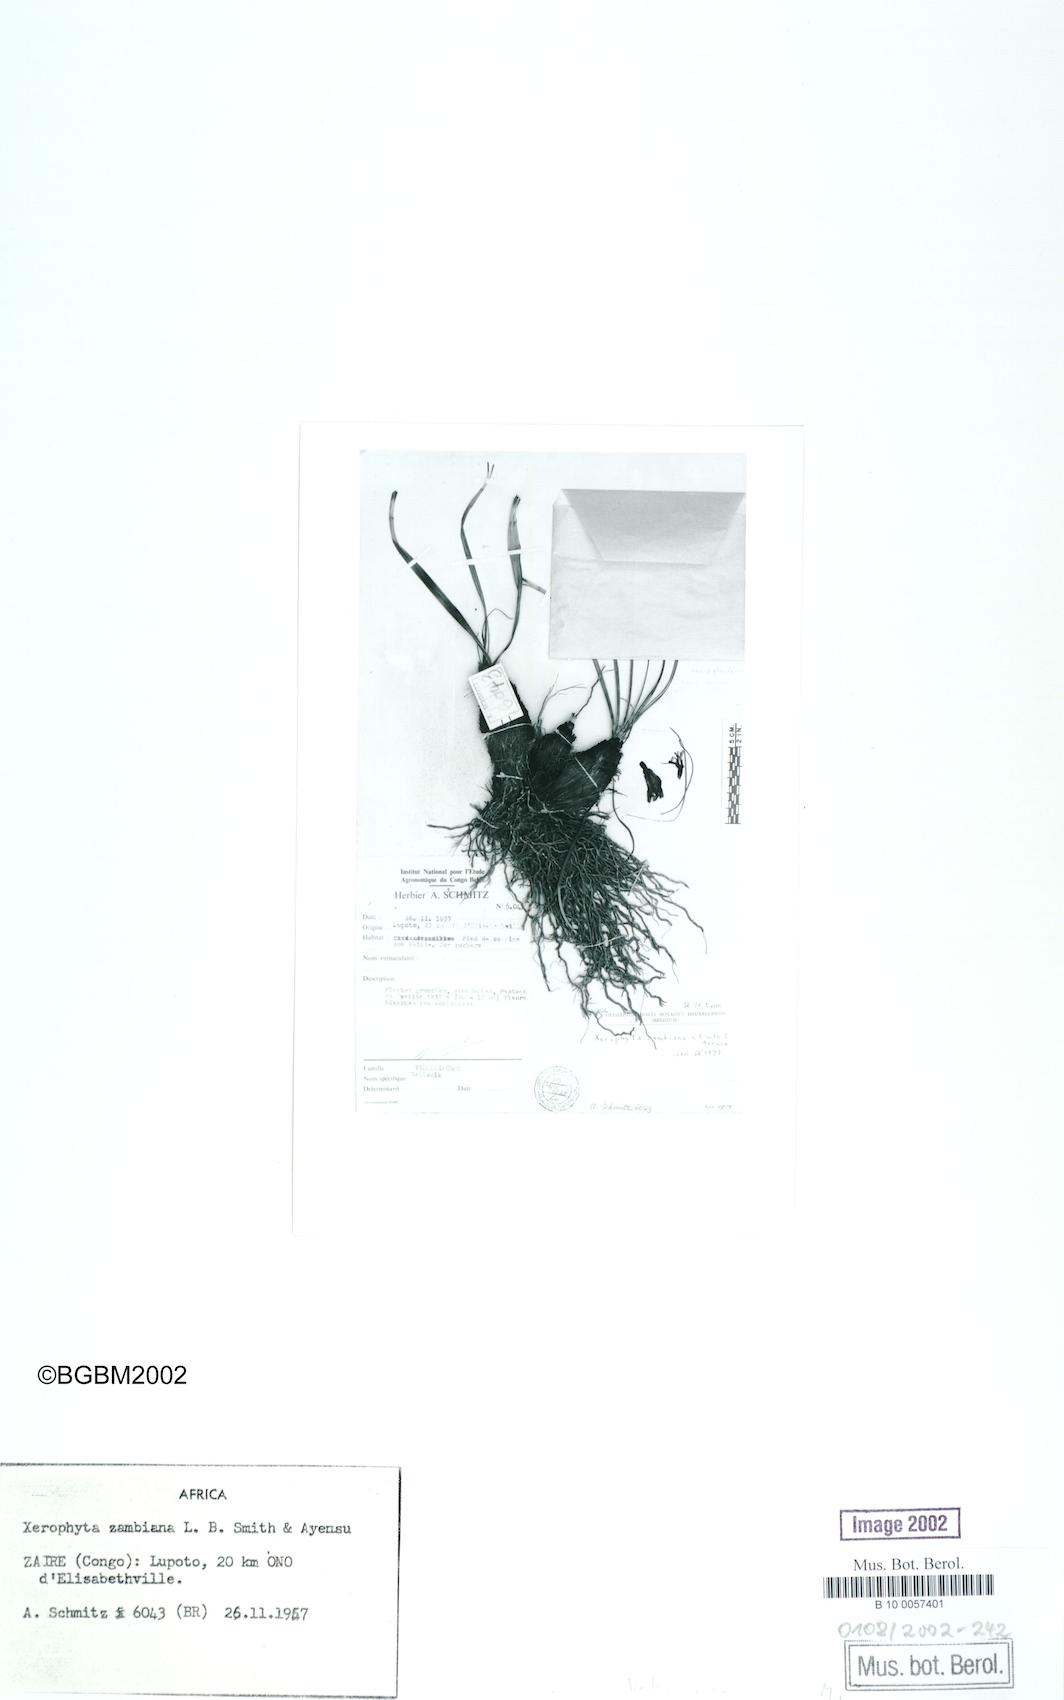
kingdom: Plantae
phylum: Tracheophyta
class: Liliopsida
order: Pandanales
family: Velloziaceae
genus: Xerophyta
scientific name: Xerophyta demeesmaekeriana
